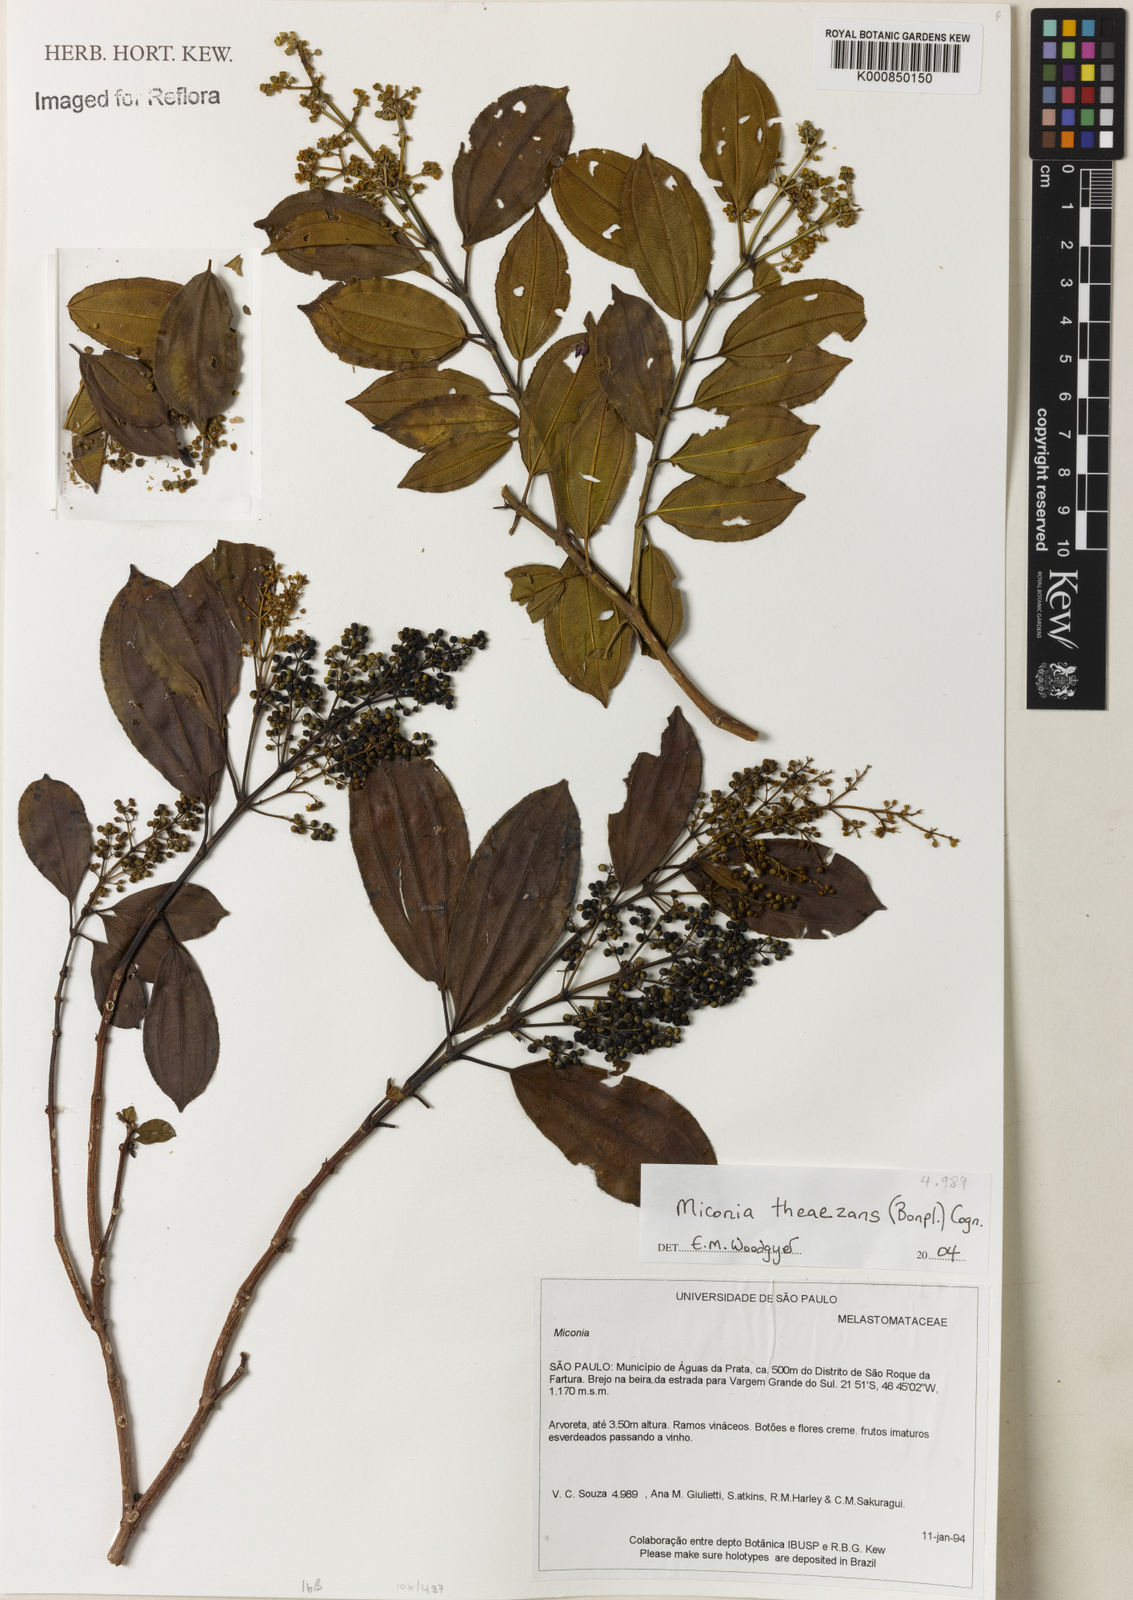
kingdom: Plantae
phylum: Tracheophyta
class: Magnoliopsida
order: Myrtales
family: Melastomataceae
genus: Miconia
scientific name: Miconia
